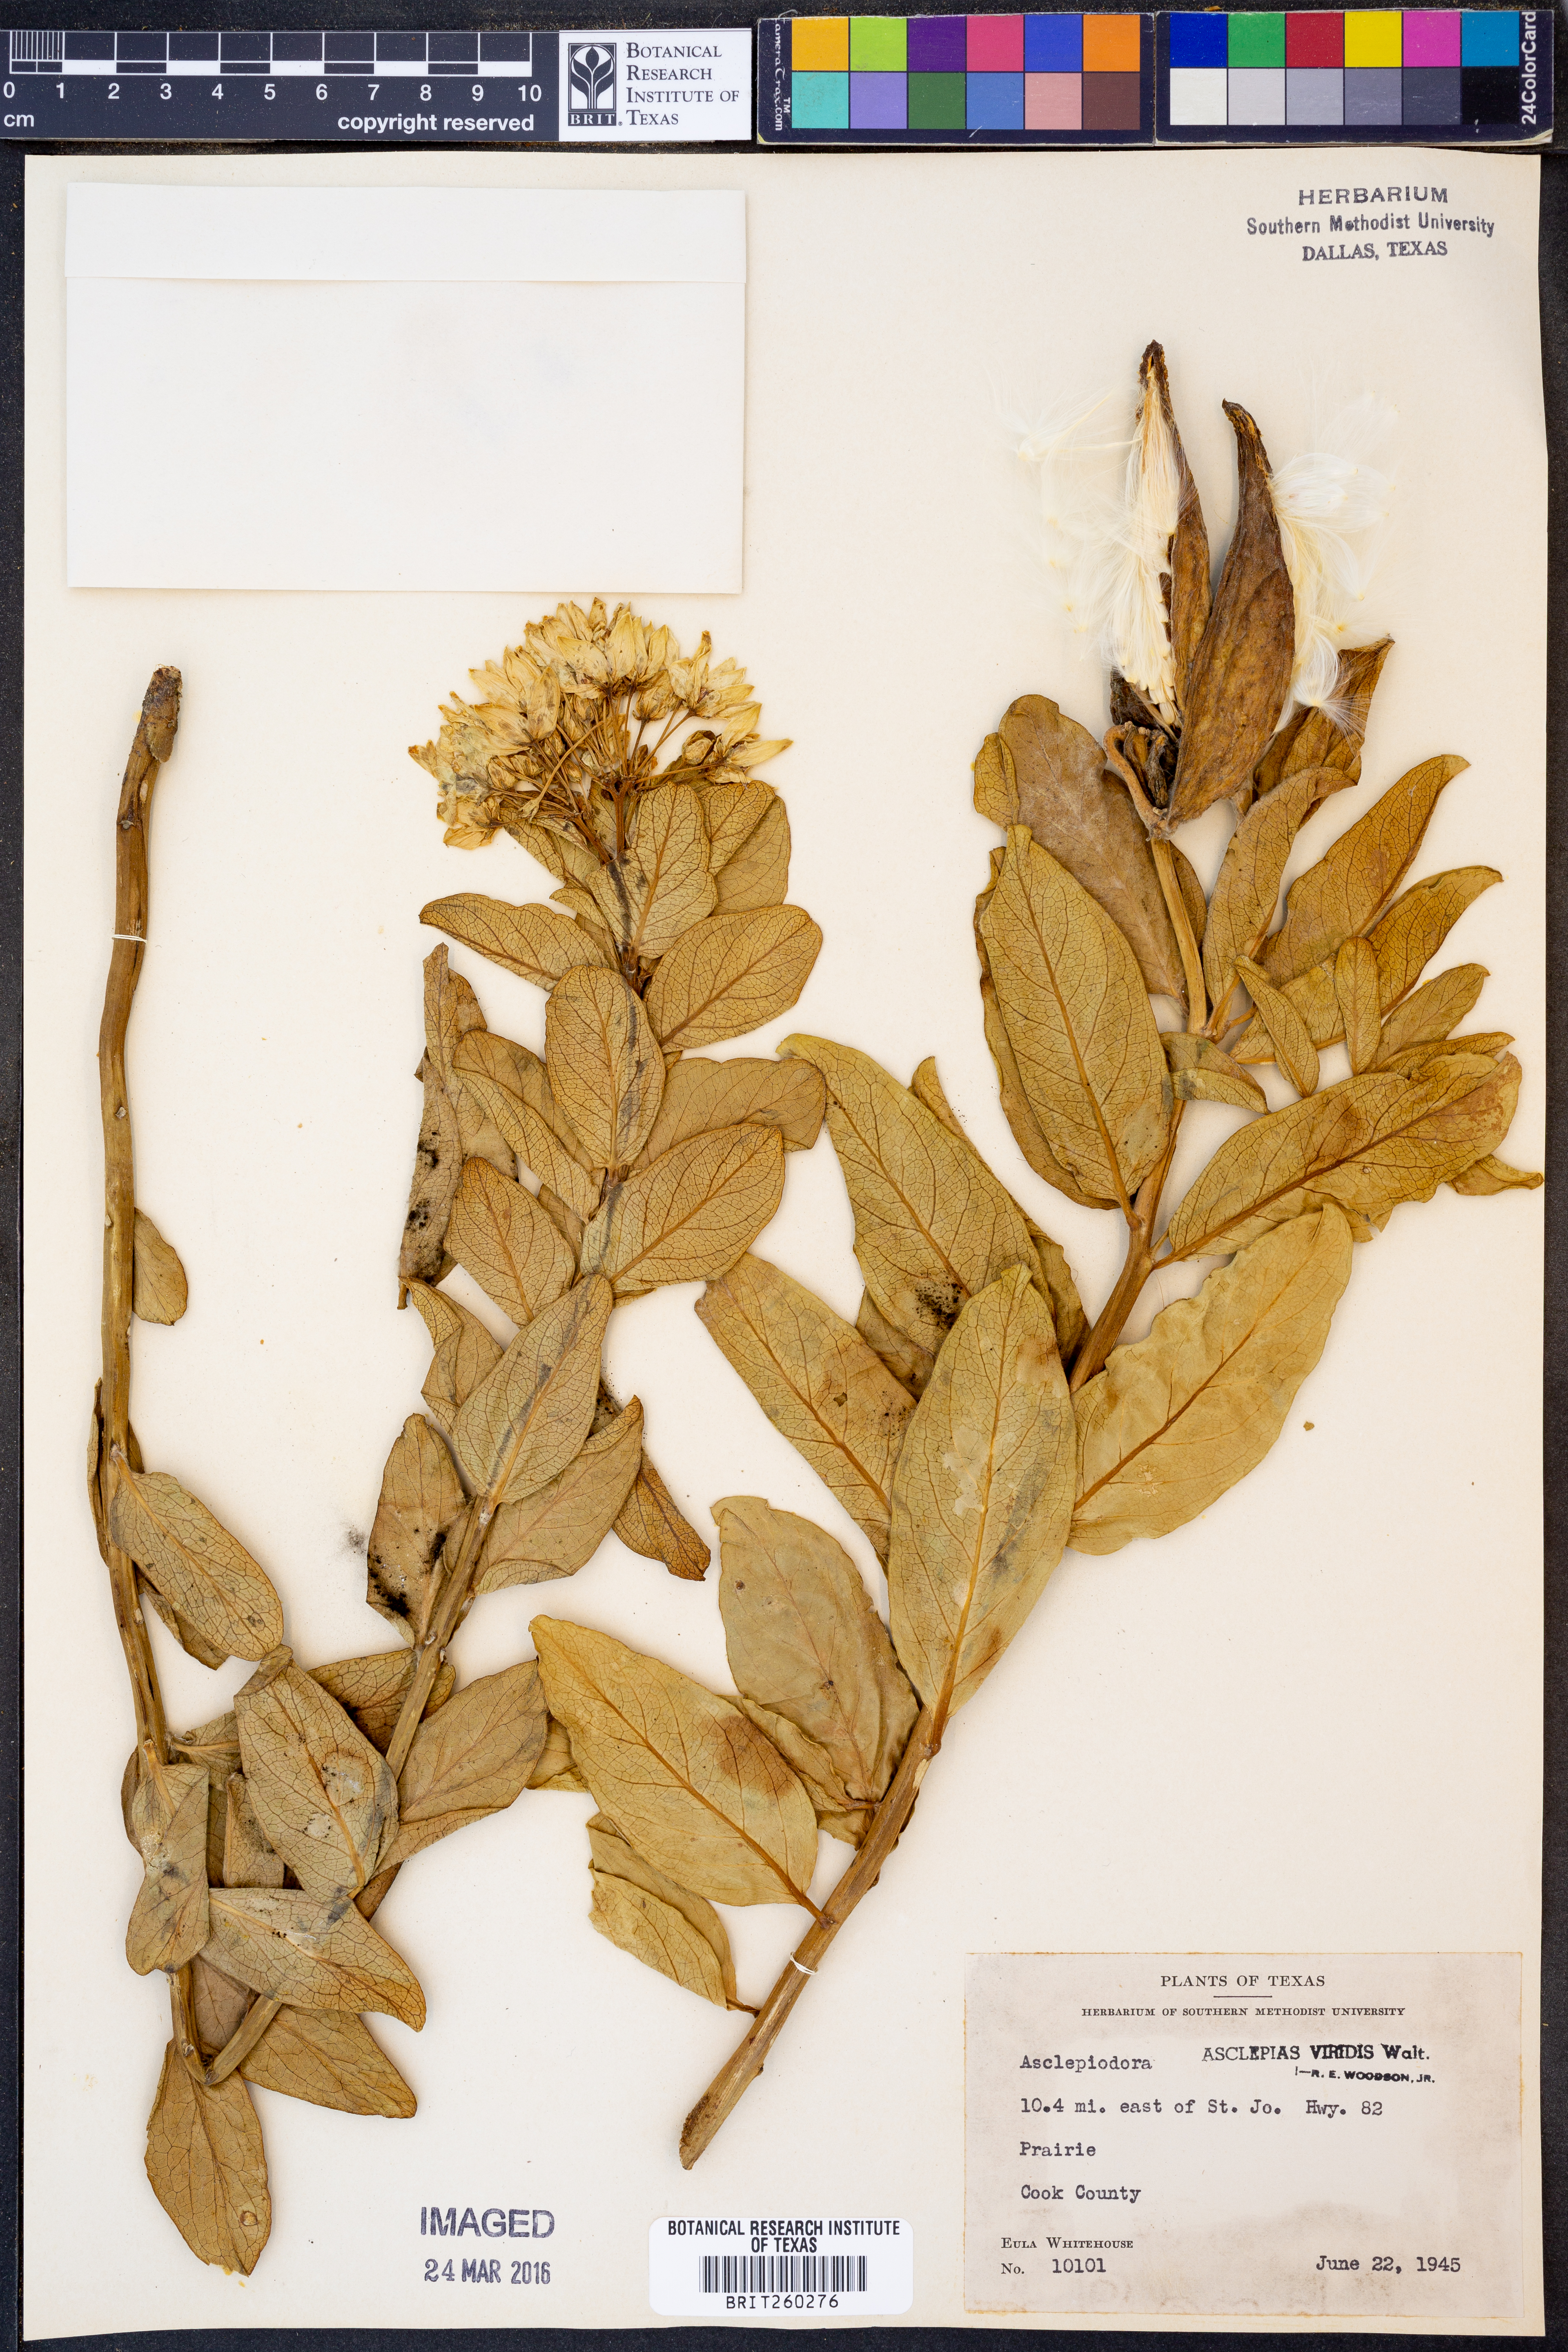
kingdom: Plantae
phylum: Tracheophyta
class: Magnoliopsida
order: Gentianales
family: Apocynaceae
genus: Asclepias
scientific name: Asclepias viridis
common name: Antelope-horns
